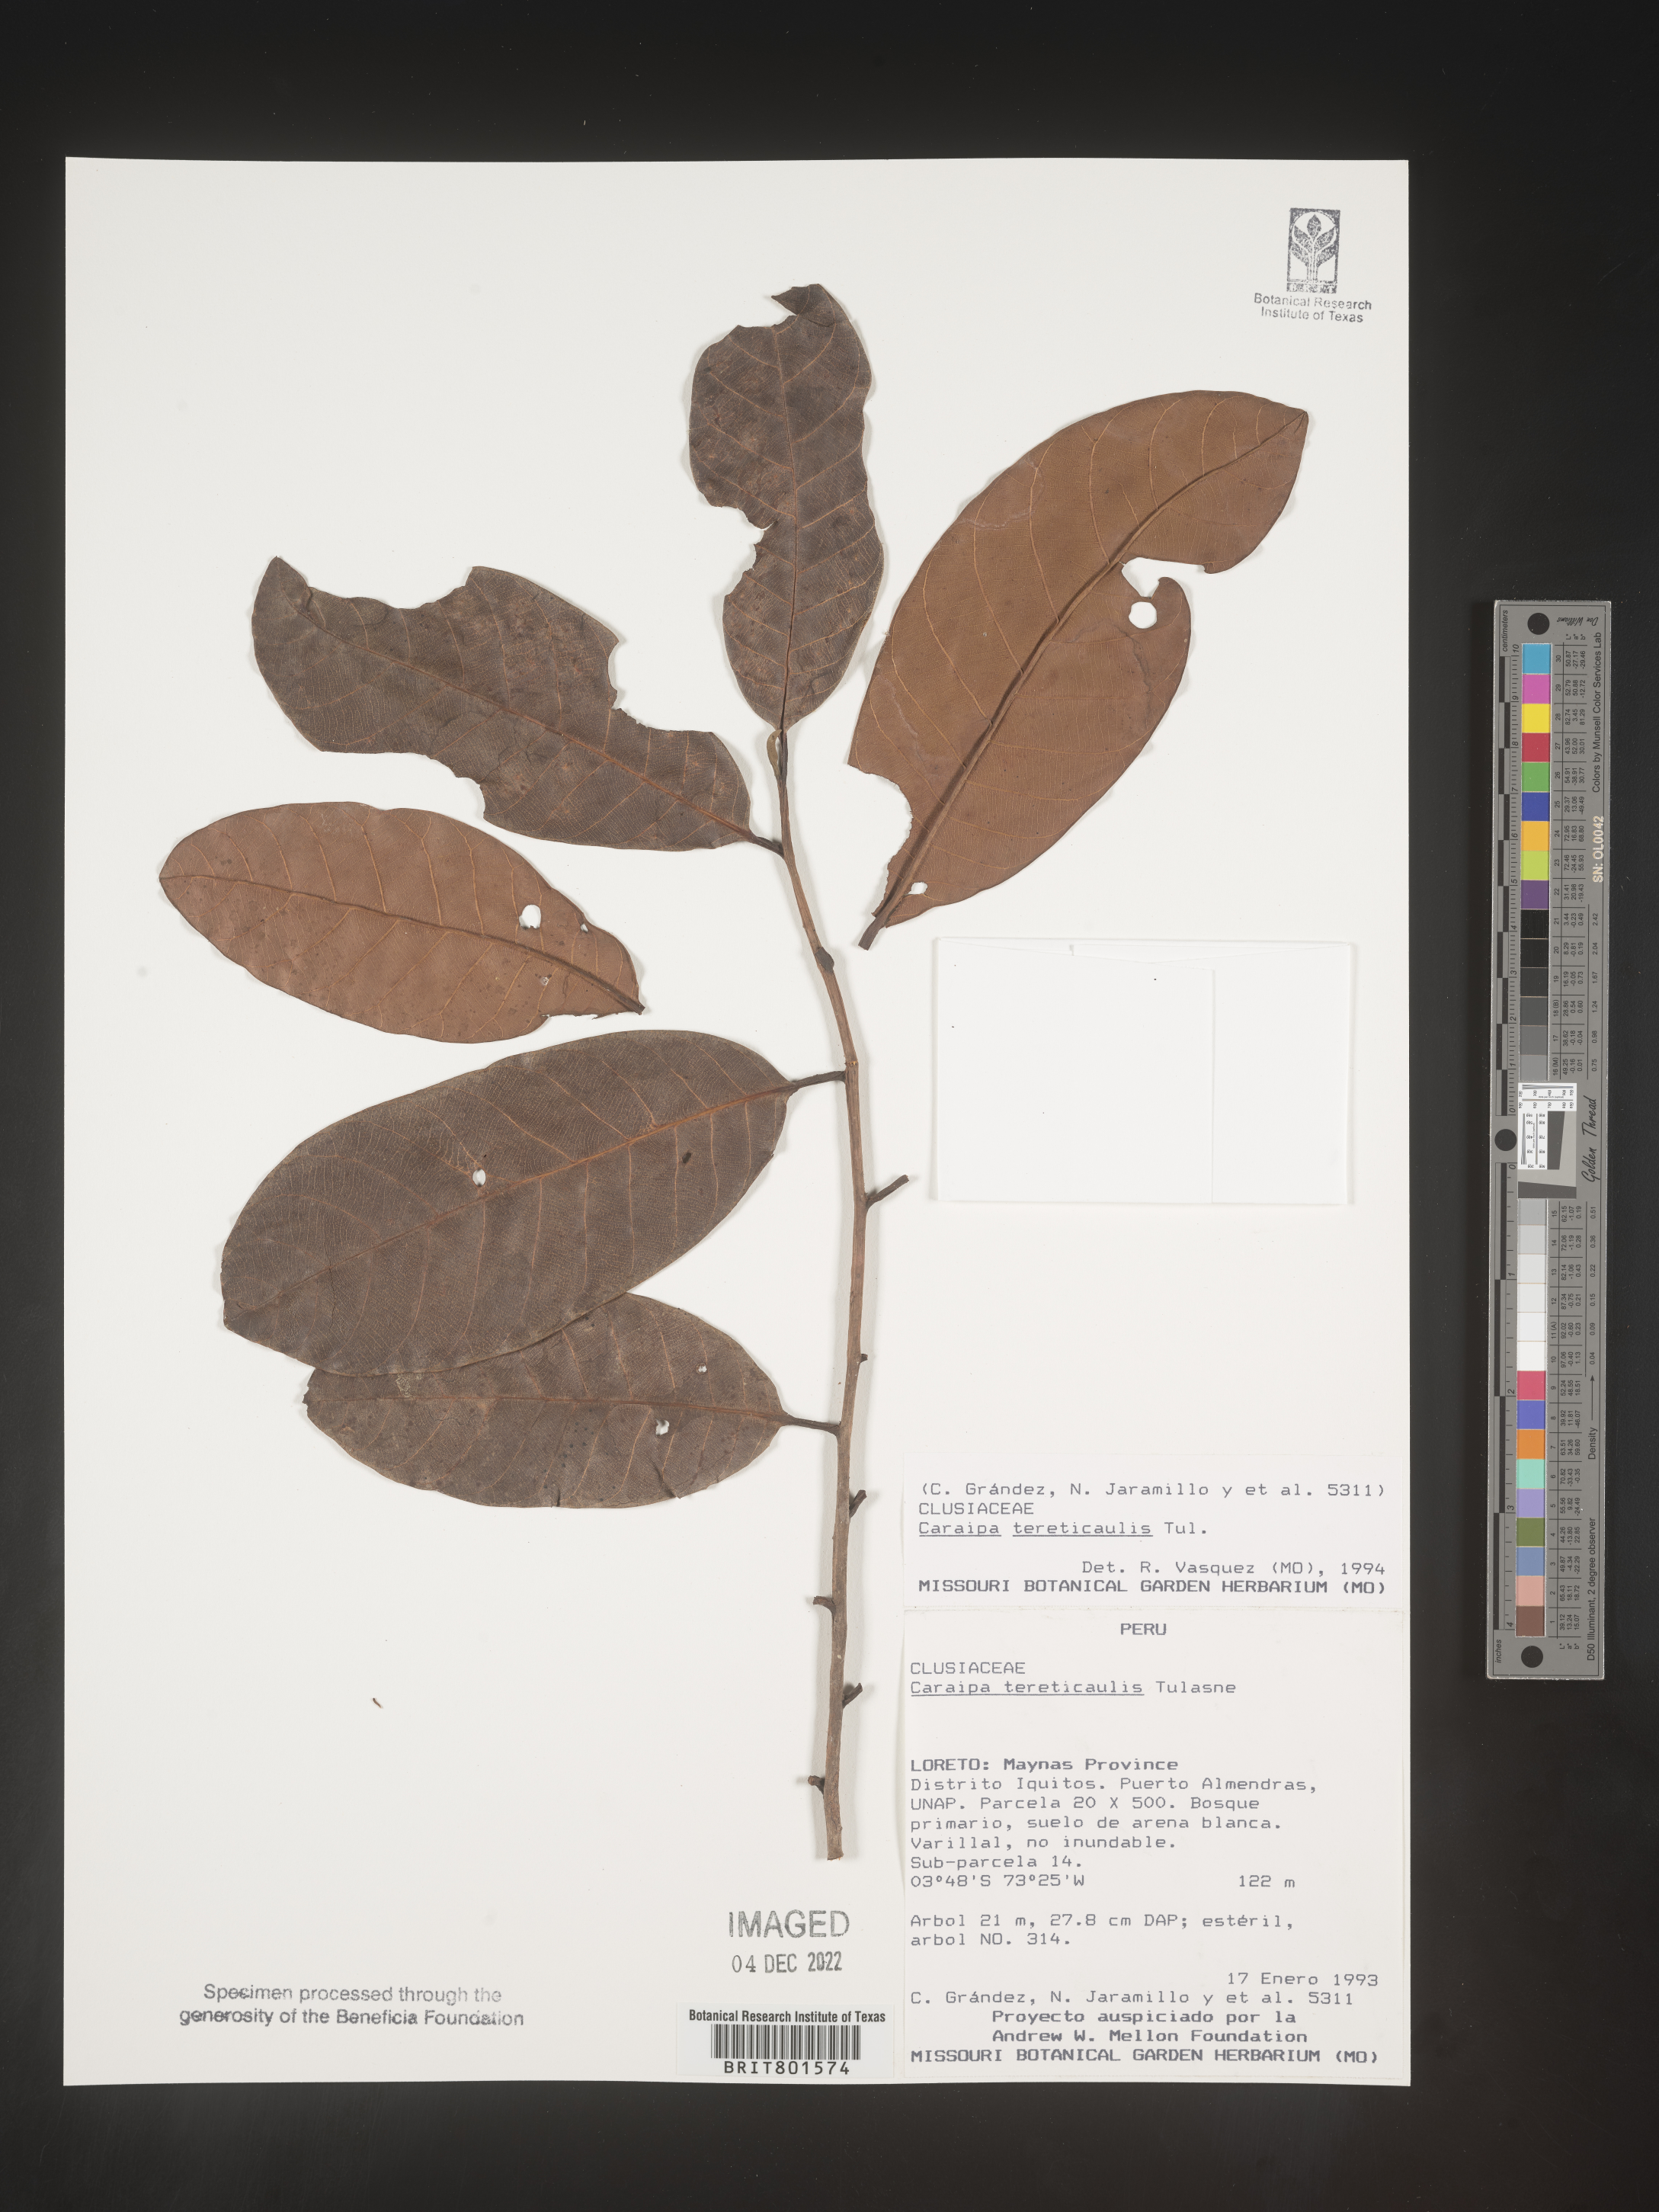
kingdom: Plantae
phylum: Tracheophyta
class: Magnoliopsida
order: Malpighiales
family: Calophyllaceae
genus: Caraipa
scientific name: Caraipa
